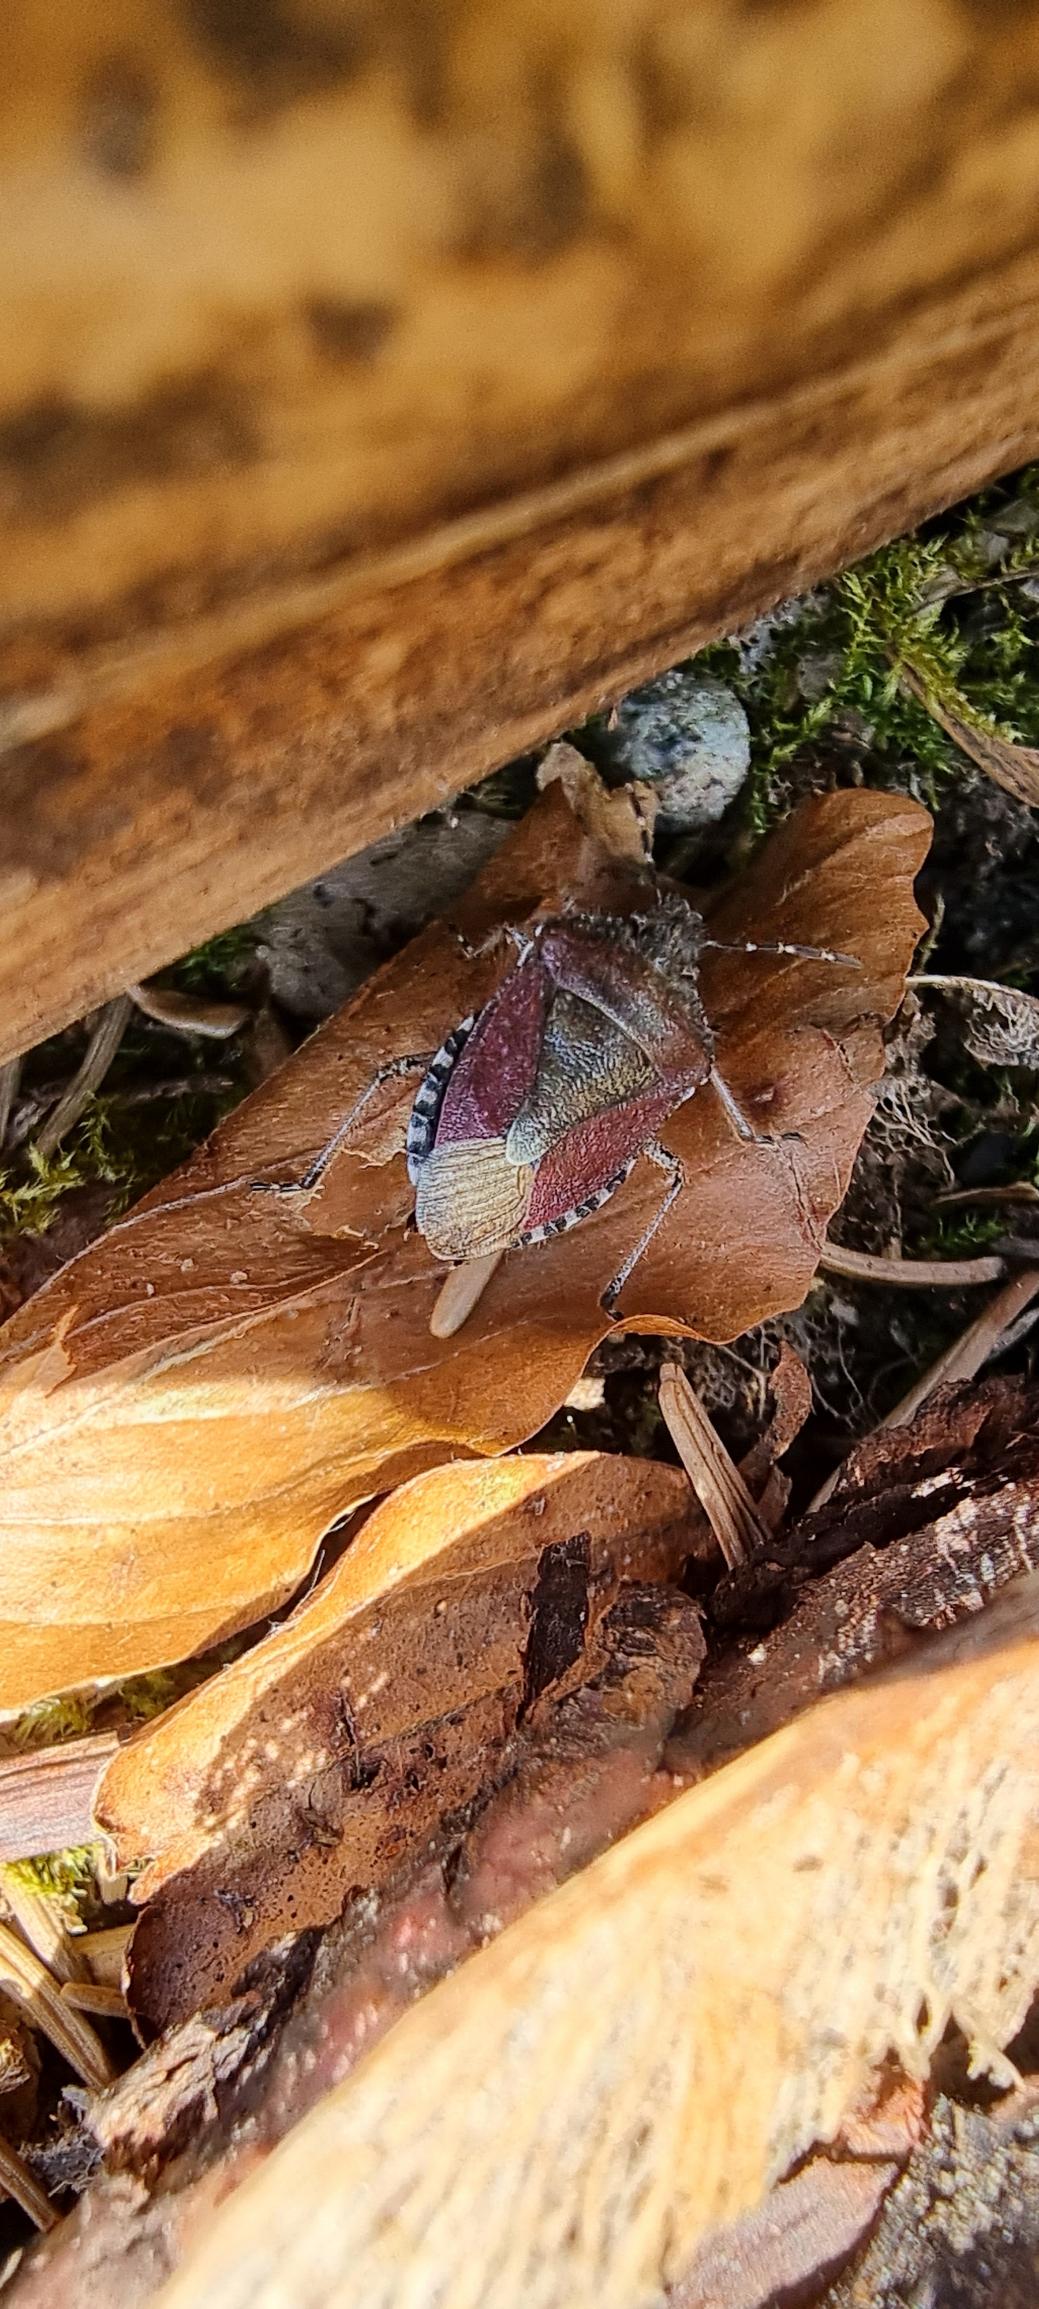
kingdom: Animalia
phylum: Arthropoda
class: Insecta
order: Hemiptera
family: Pentatomidae
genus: Dolycoris
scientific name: Dolycoris baccarum
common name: Almindelig bærtæge
